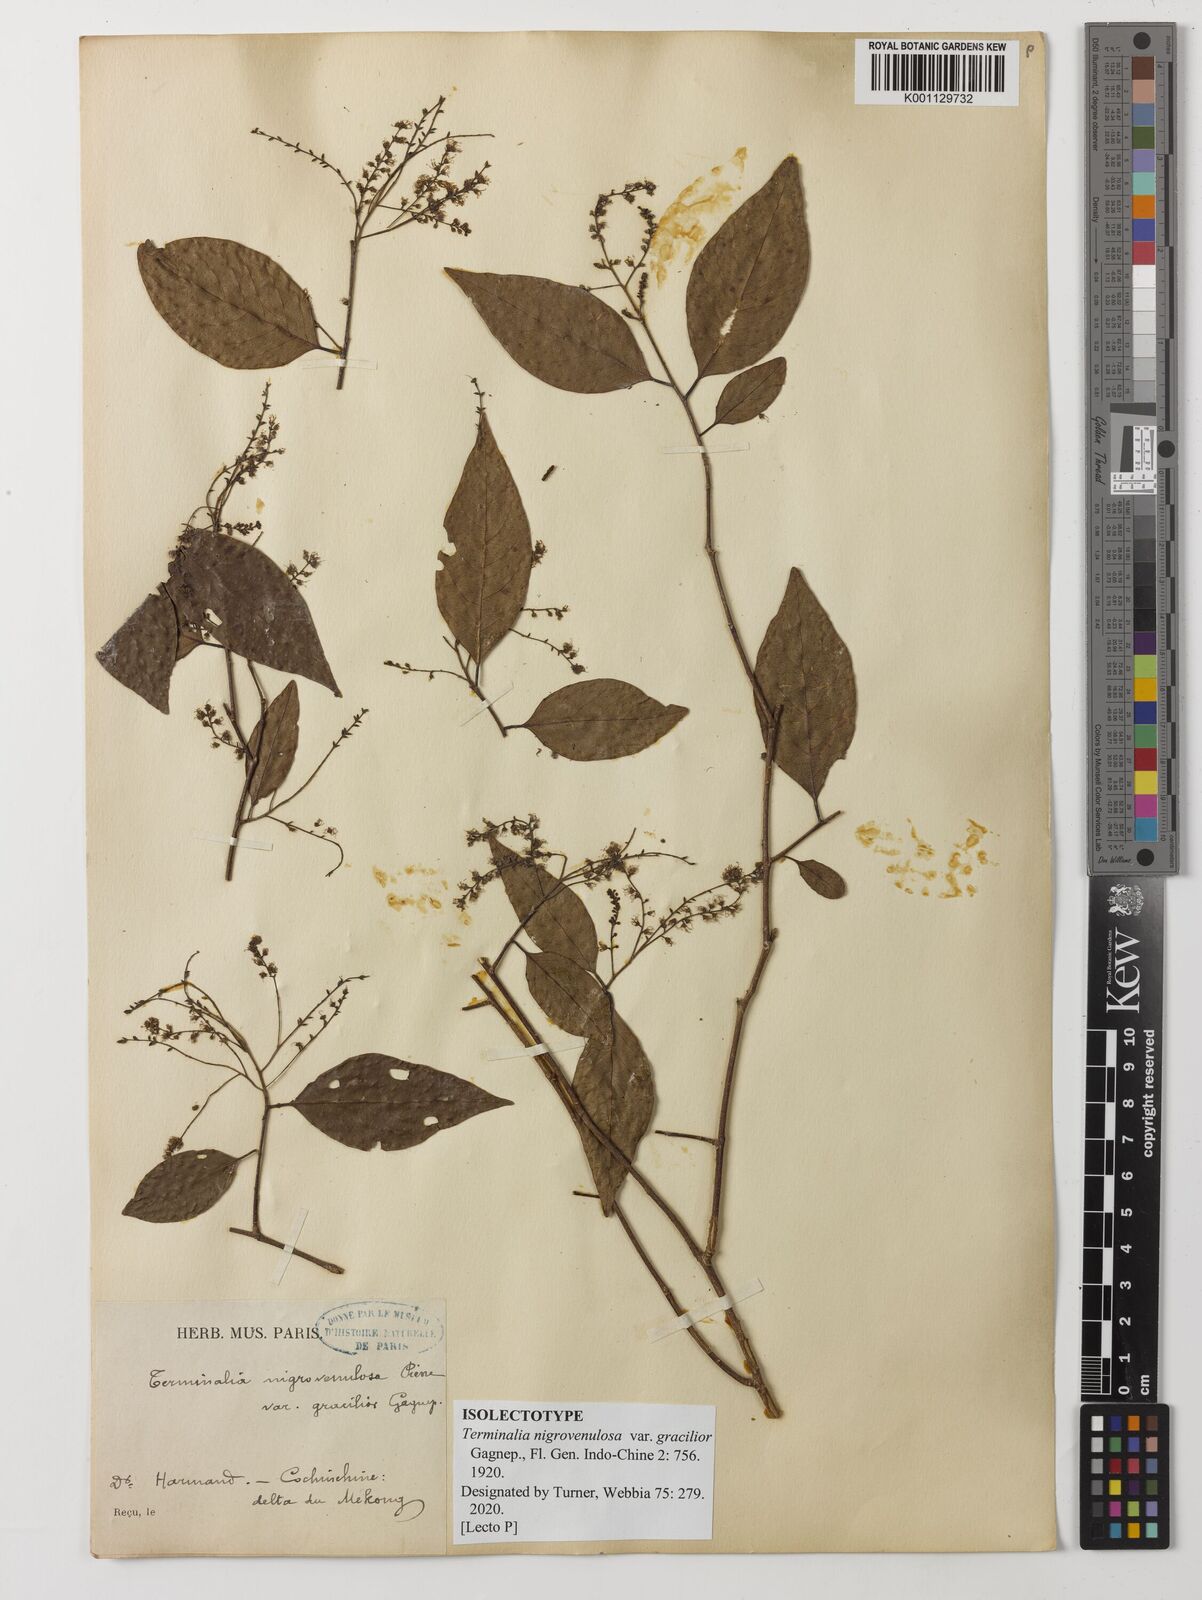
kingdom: Plantae
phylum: Tracheophyta
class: Magnoliopsida
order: Myrtales
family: Combretaceae
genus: Terminalia
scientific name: Terminalia triptera
